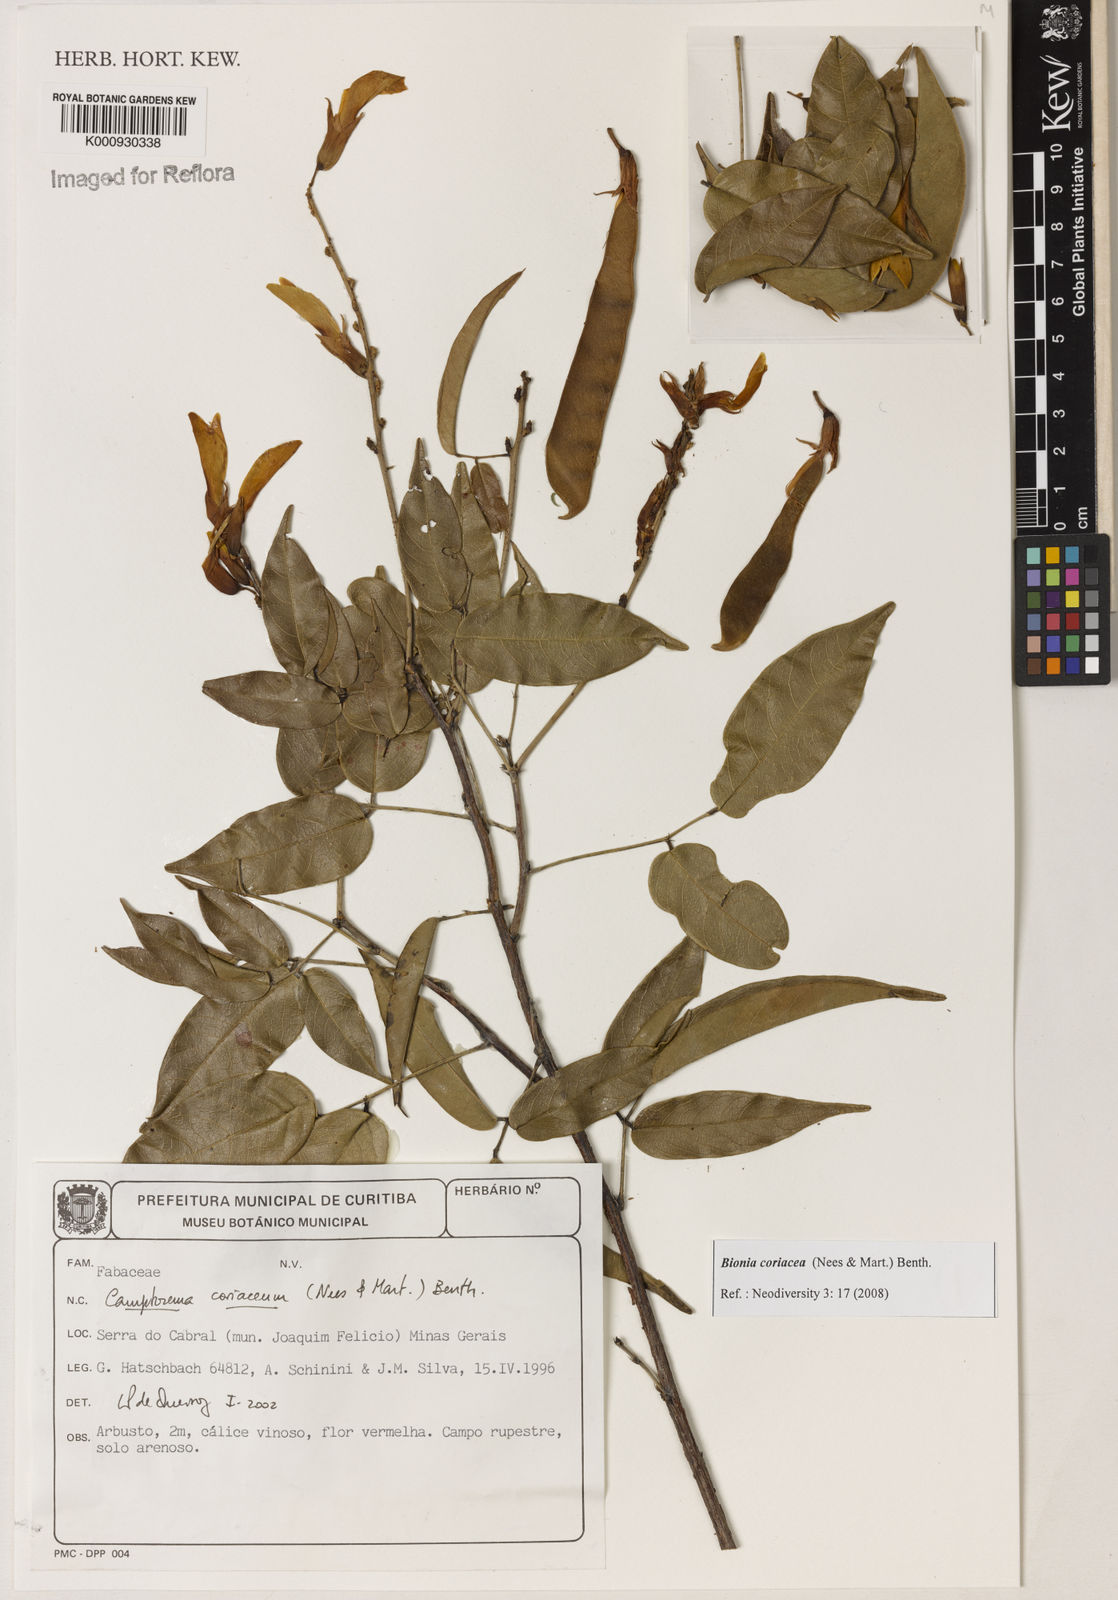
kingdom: Plantae
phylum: Tracheophyta
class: Magnoliopsida
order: Fabales
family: Fabaceae
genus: Camptosema
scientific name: Camptosema coriaceum
